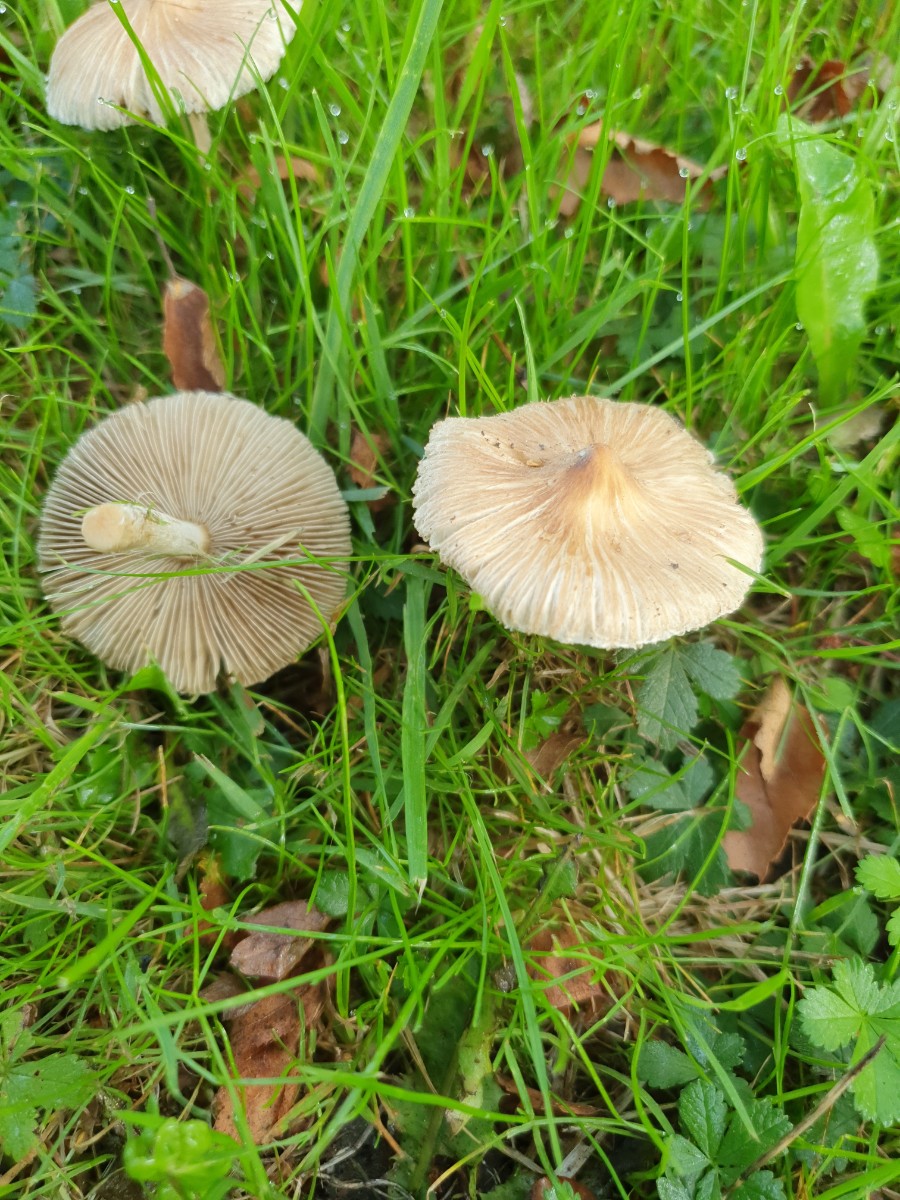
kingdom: Fungi
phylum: Basidiomycota
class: Agaricomycetes
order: Agaricales
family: Inocybaceae
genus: Pseudosperma
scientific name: Pseudosperma
